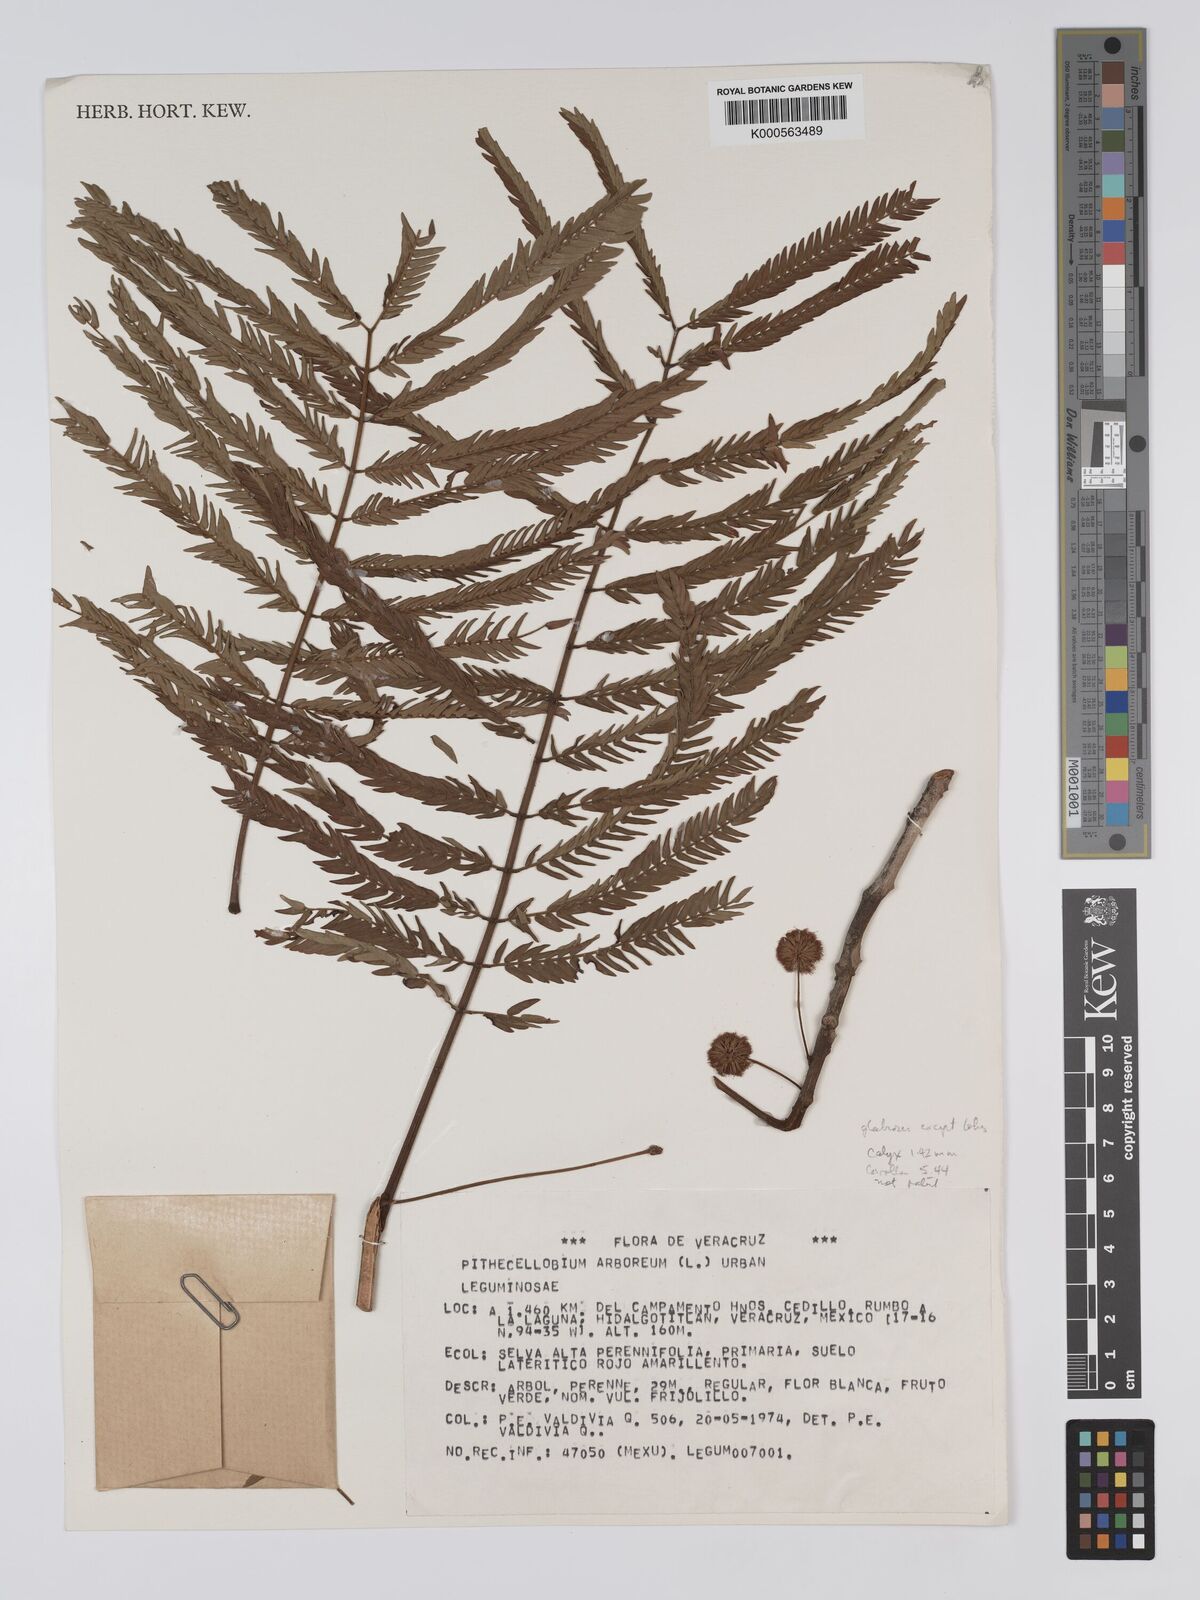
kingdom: Plantae
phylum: Tracheophyta
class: Magnoliopsida
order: Fabales
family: Fabaceae
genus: Cojoba
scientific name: Cojoba arborea
